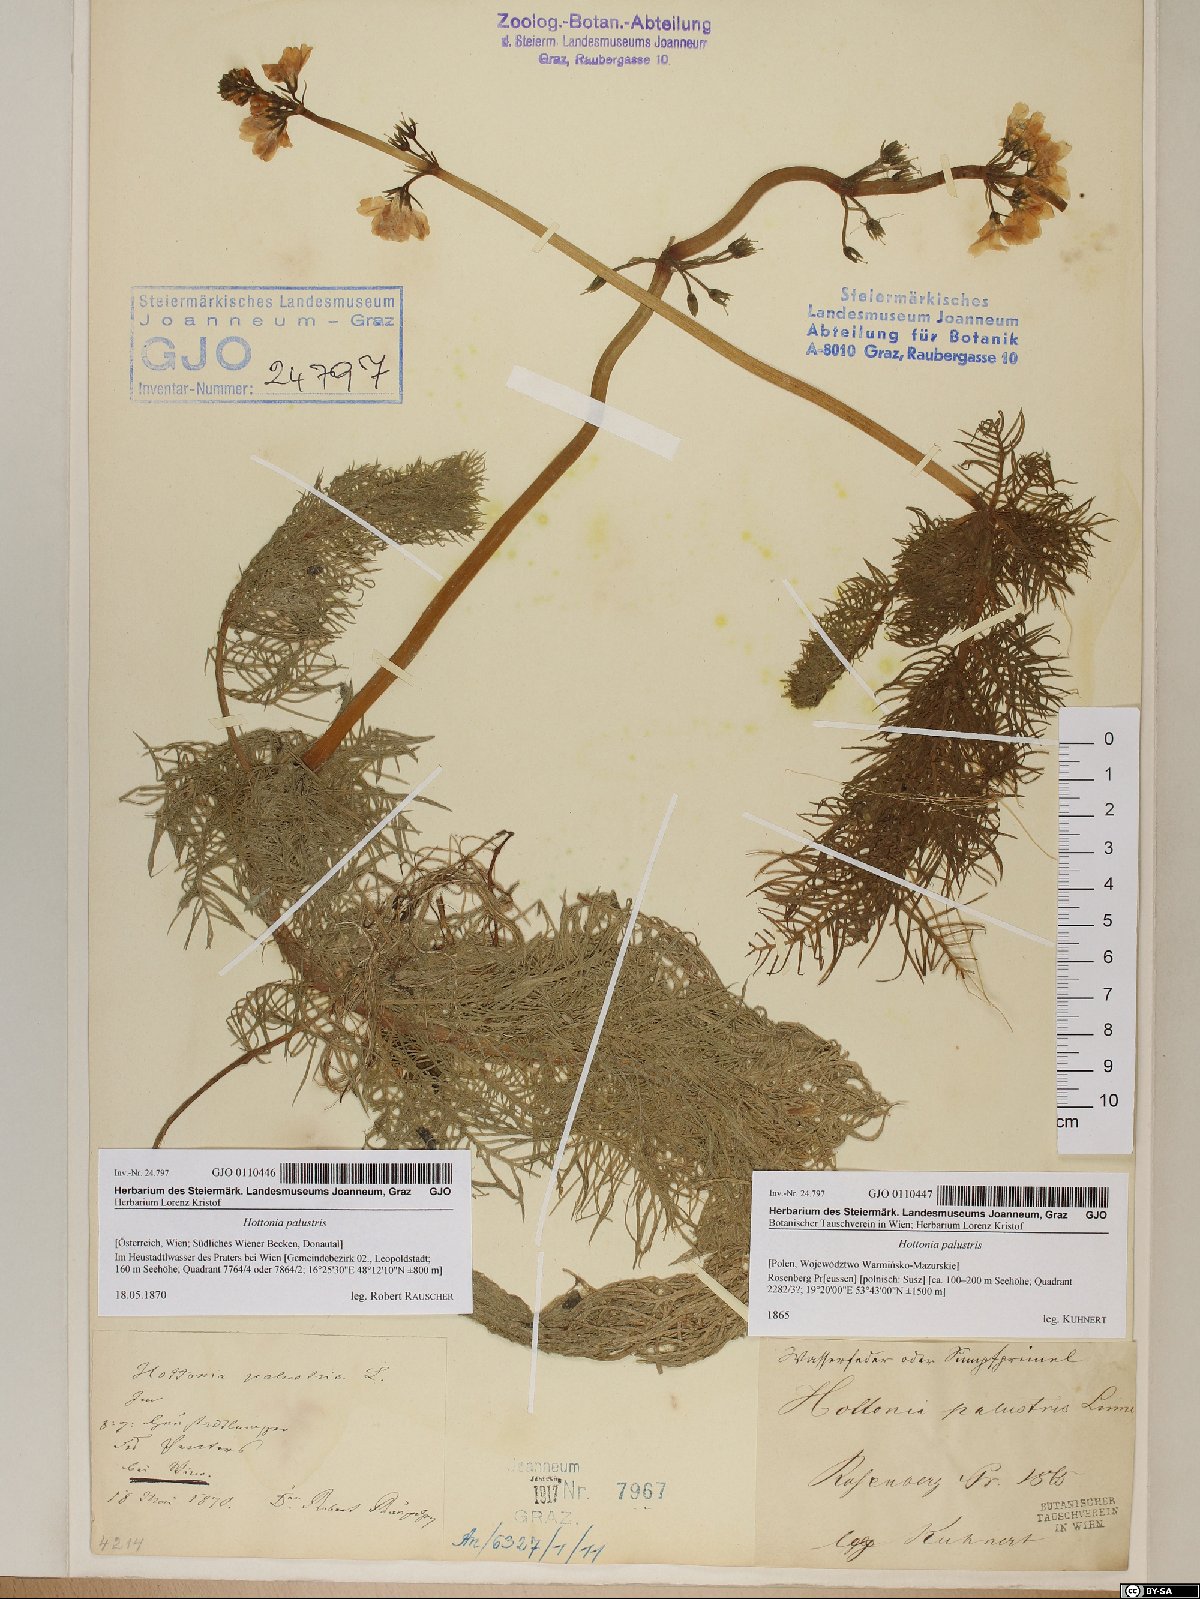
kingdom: Plantae
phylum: Tracheophyta
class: Magnoliopsida
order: Ericales
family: Primulaceae
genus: Hottonia
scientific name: Hottonia palustris
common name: Water-violet
